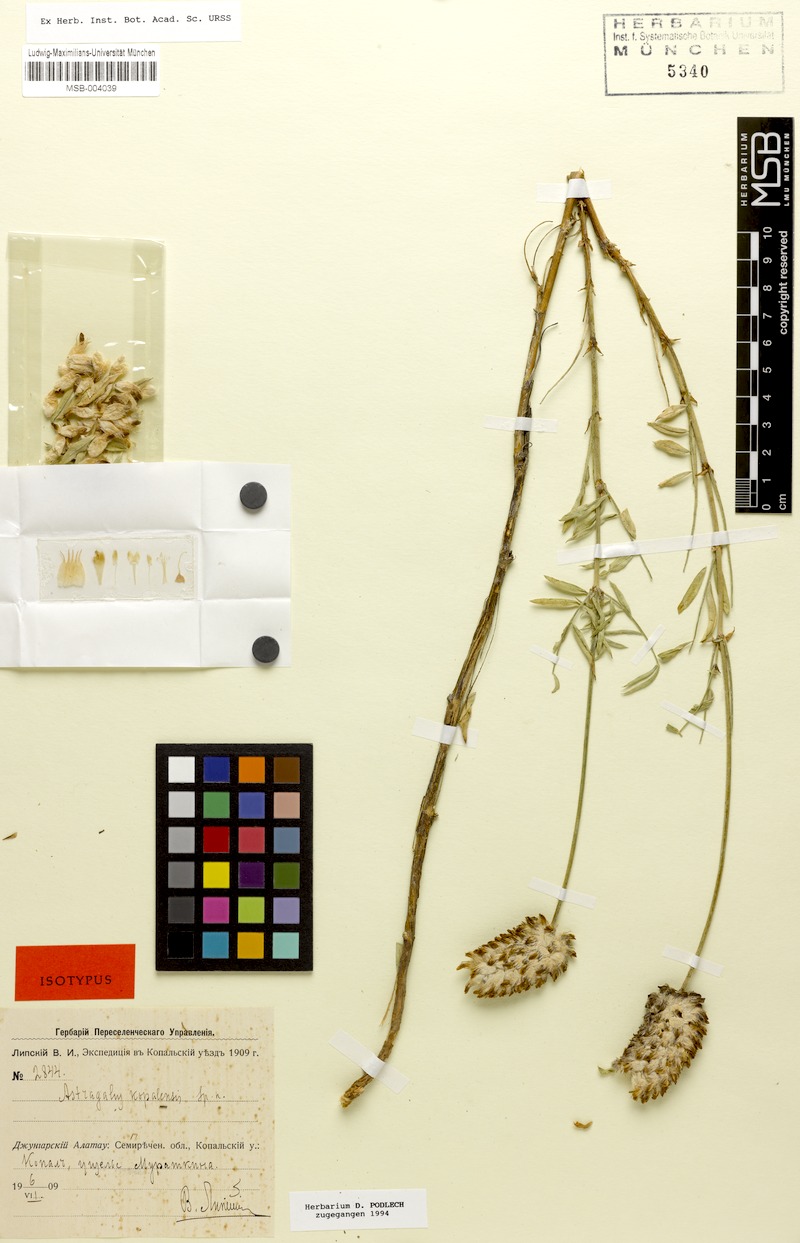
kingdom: Plantae
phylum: Tracheophyta
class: Magnoliopsida
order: Fabales
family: Fabaceae
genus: Astragalus
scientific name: Astragalus australis
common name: Indian milk-vetch
